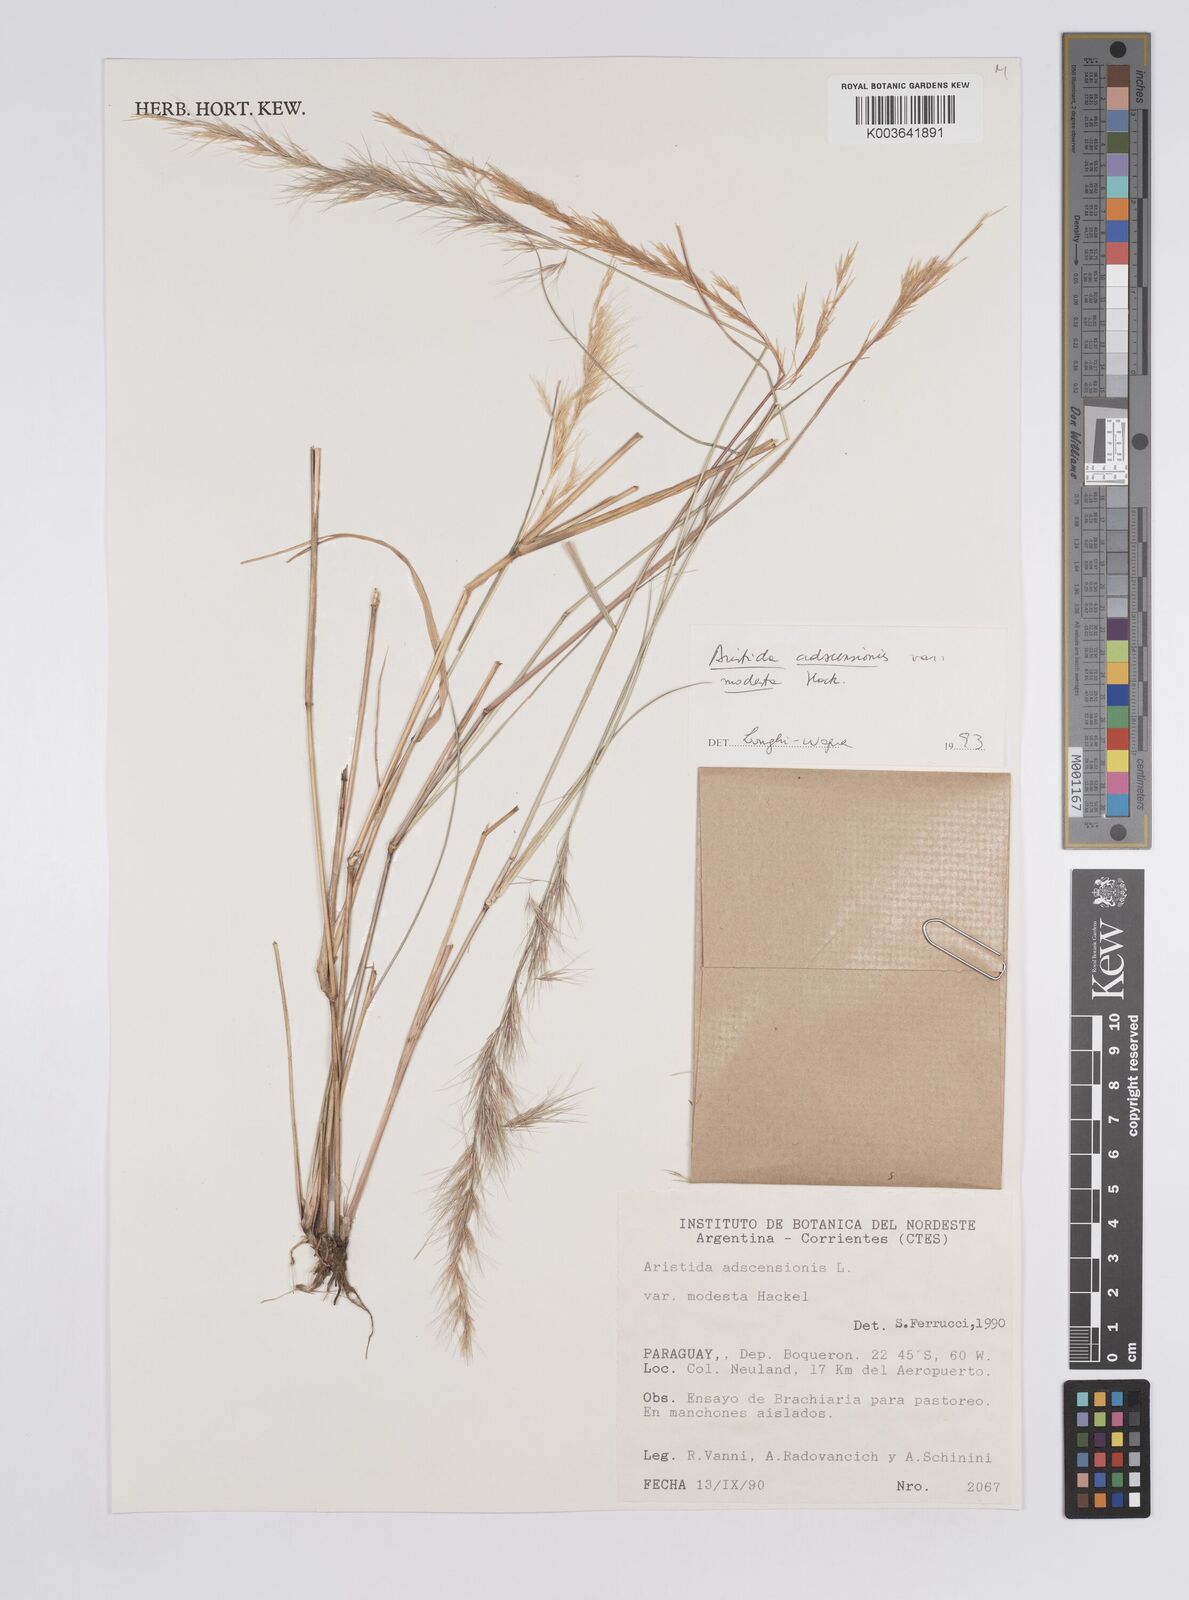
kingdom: Plantae
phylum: Tracheophyta
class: Liliopsida
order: Poales
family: Poaceae
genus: Aristida
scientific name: Aristida adscensionis
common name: Sixweeks threeawn
